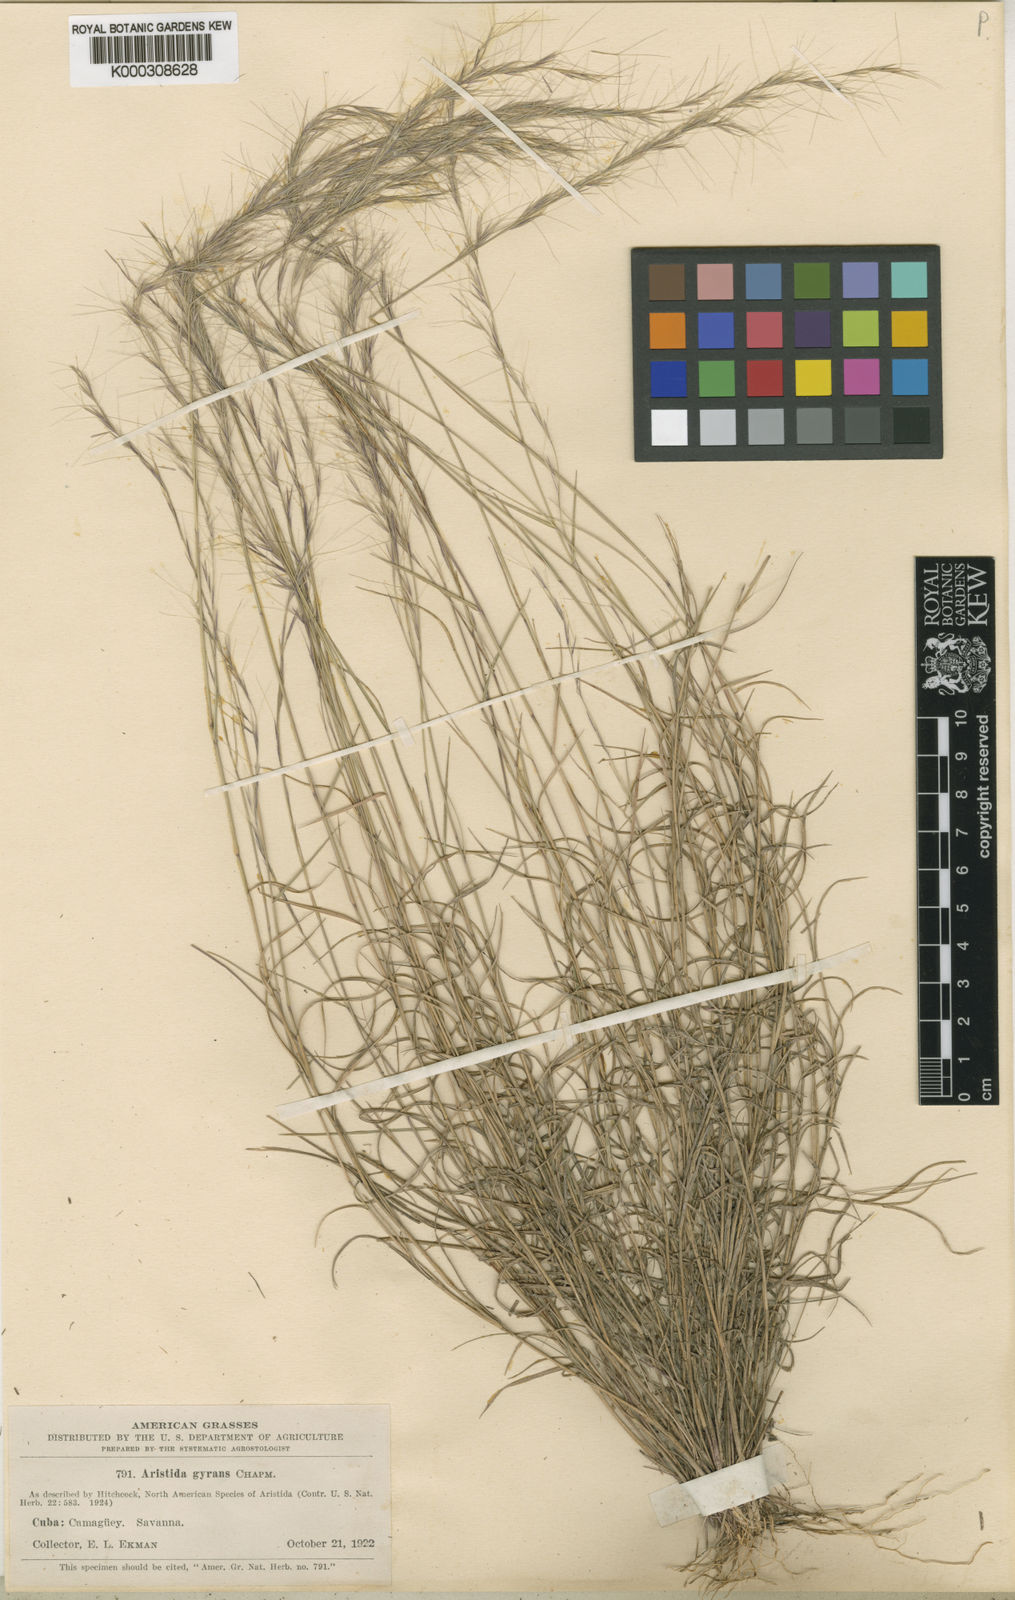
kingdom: Plantae
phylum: Tracheophyta
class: Liliopsida
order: Poales
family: Poaceae
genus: Aristida
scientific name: Aristida vilfifolia
